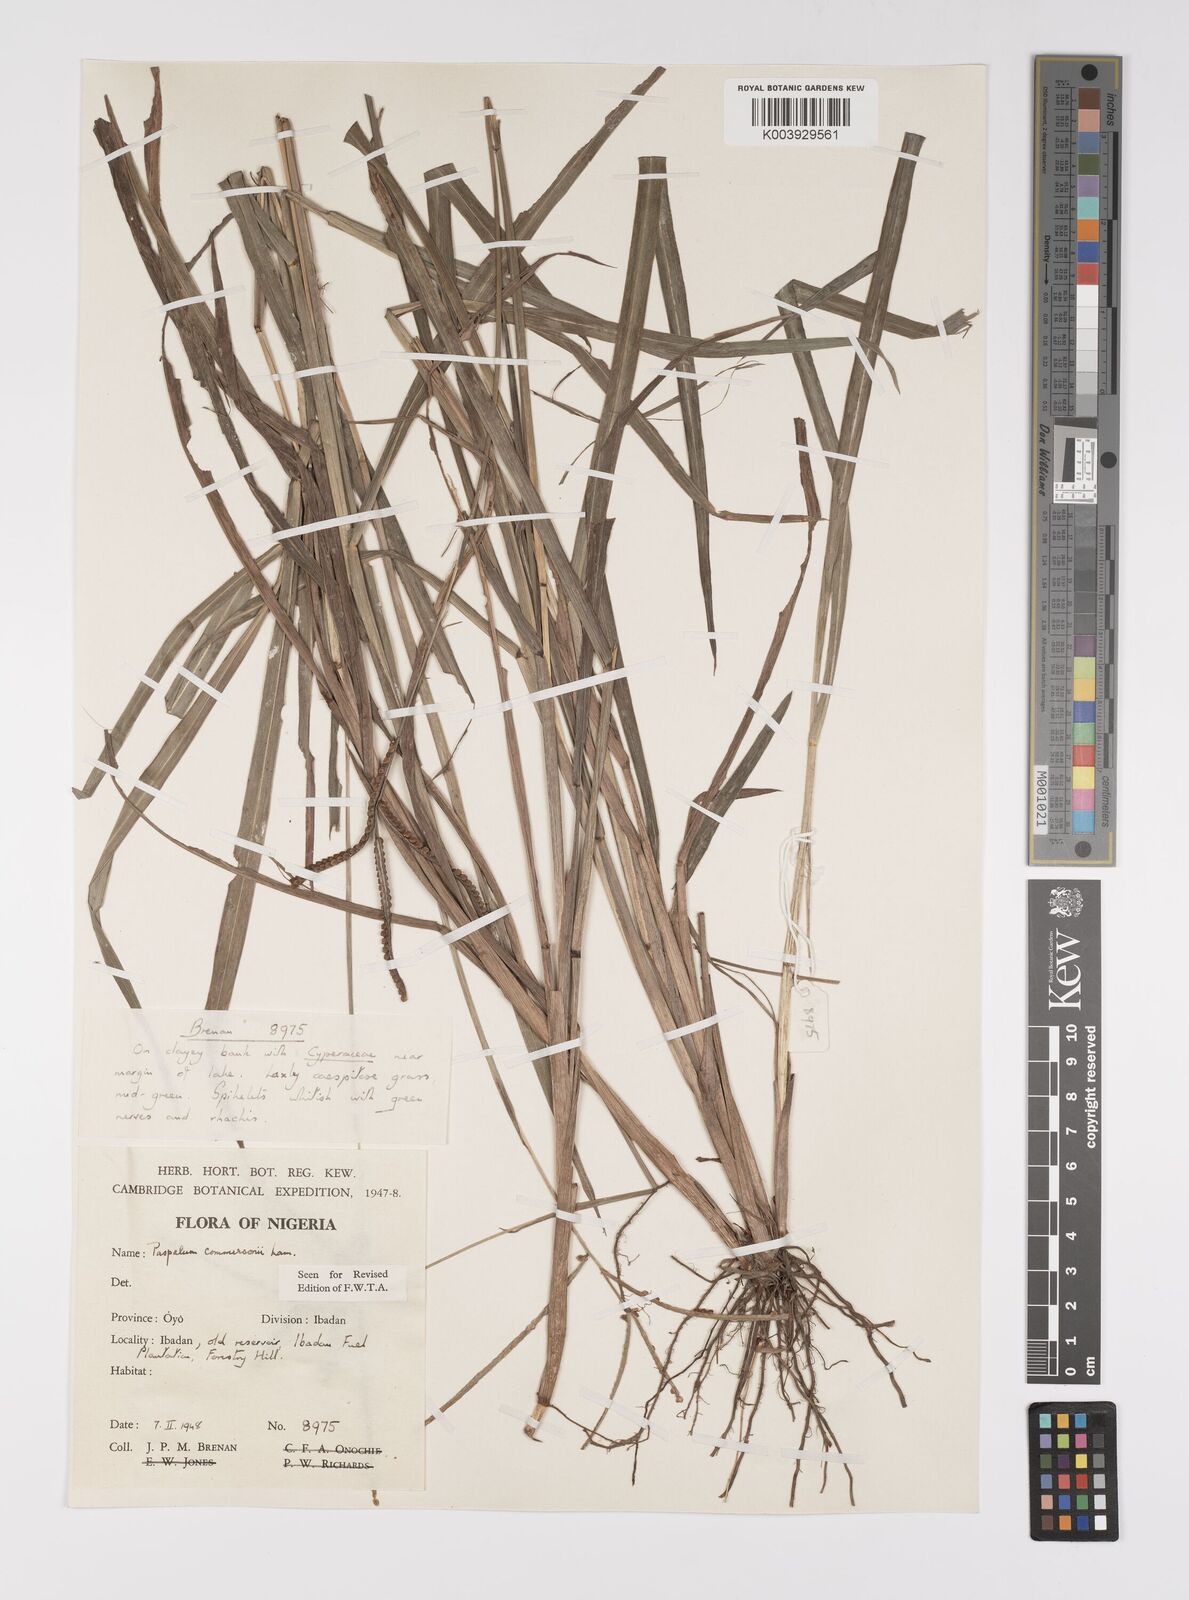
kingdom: Plantae
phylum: Tracheophyta
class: Liliopsida
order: Poales
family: Poaceae
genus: Paspalum
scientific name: Paspalum scrobiculatum
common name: Kodo millet
